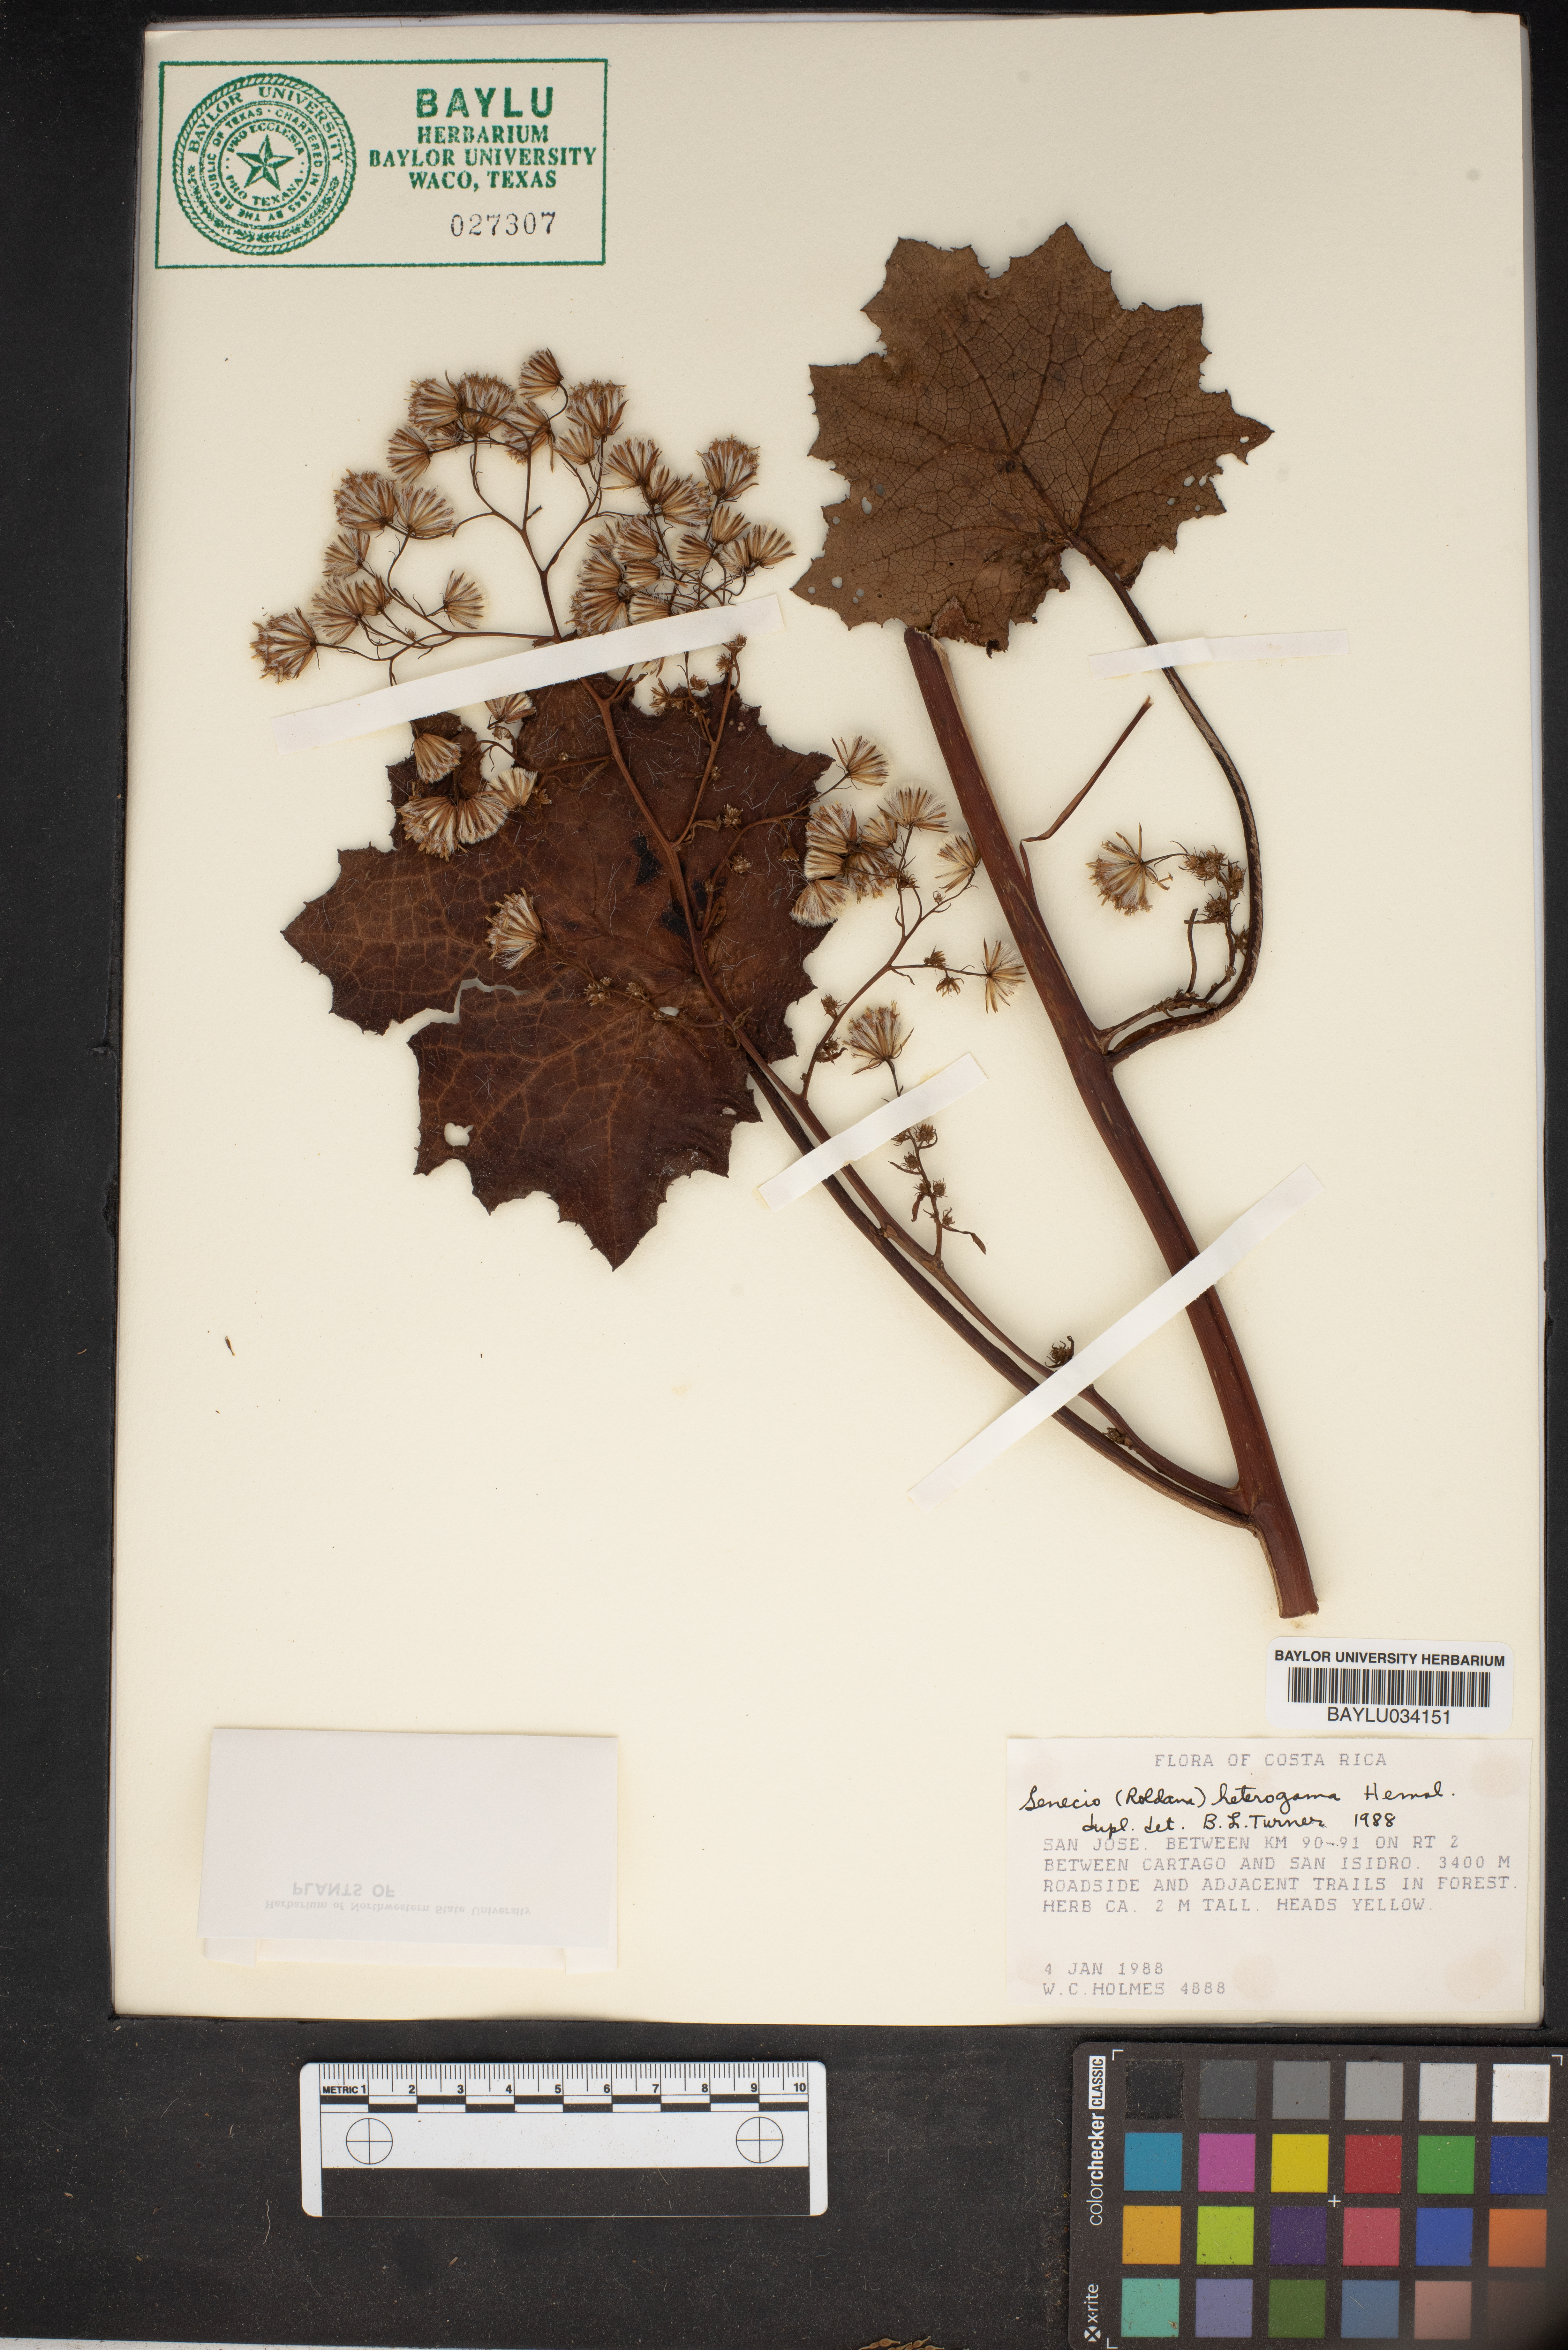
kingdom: Plantae
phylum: Tracheophyta
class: Magnoliopsida
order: Asterales
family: Asteraceae
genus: Roldana
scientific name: Roldana heterogama
